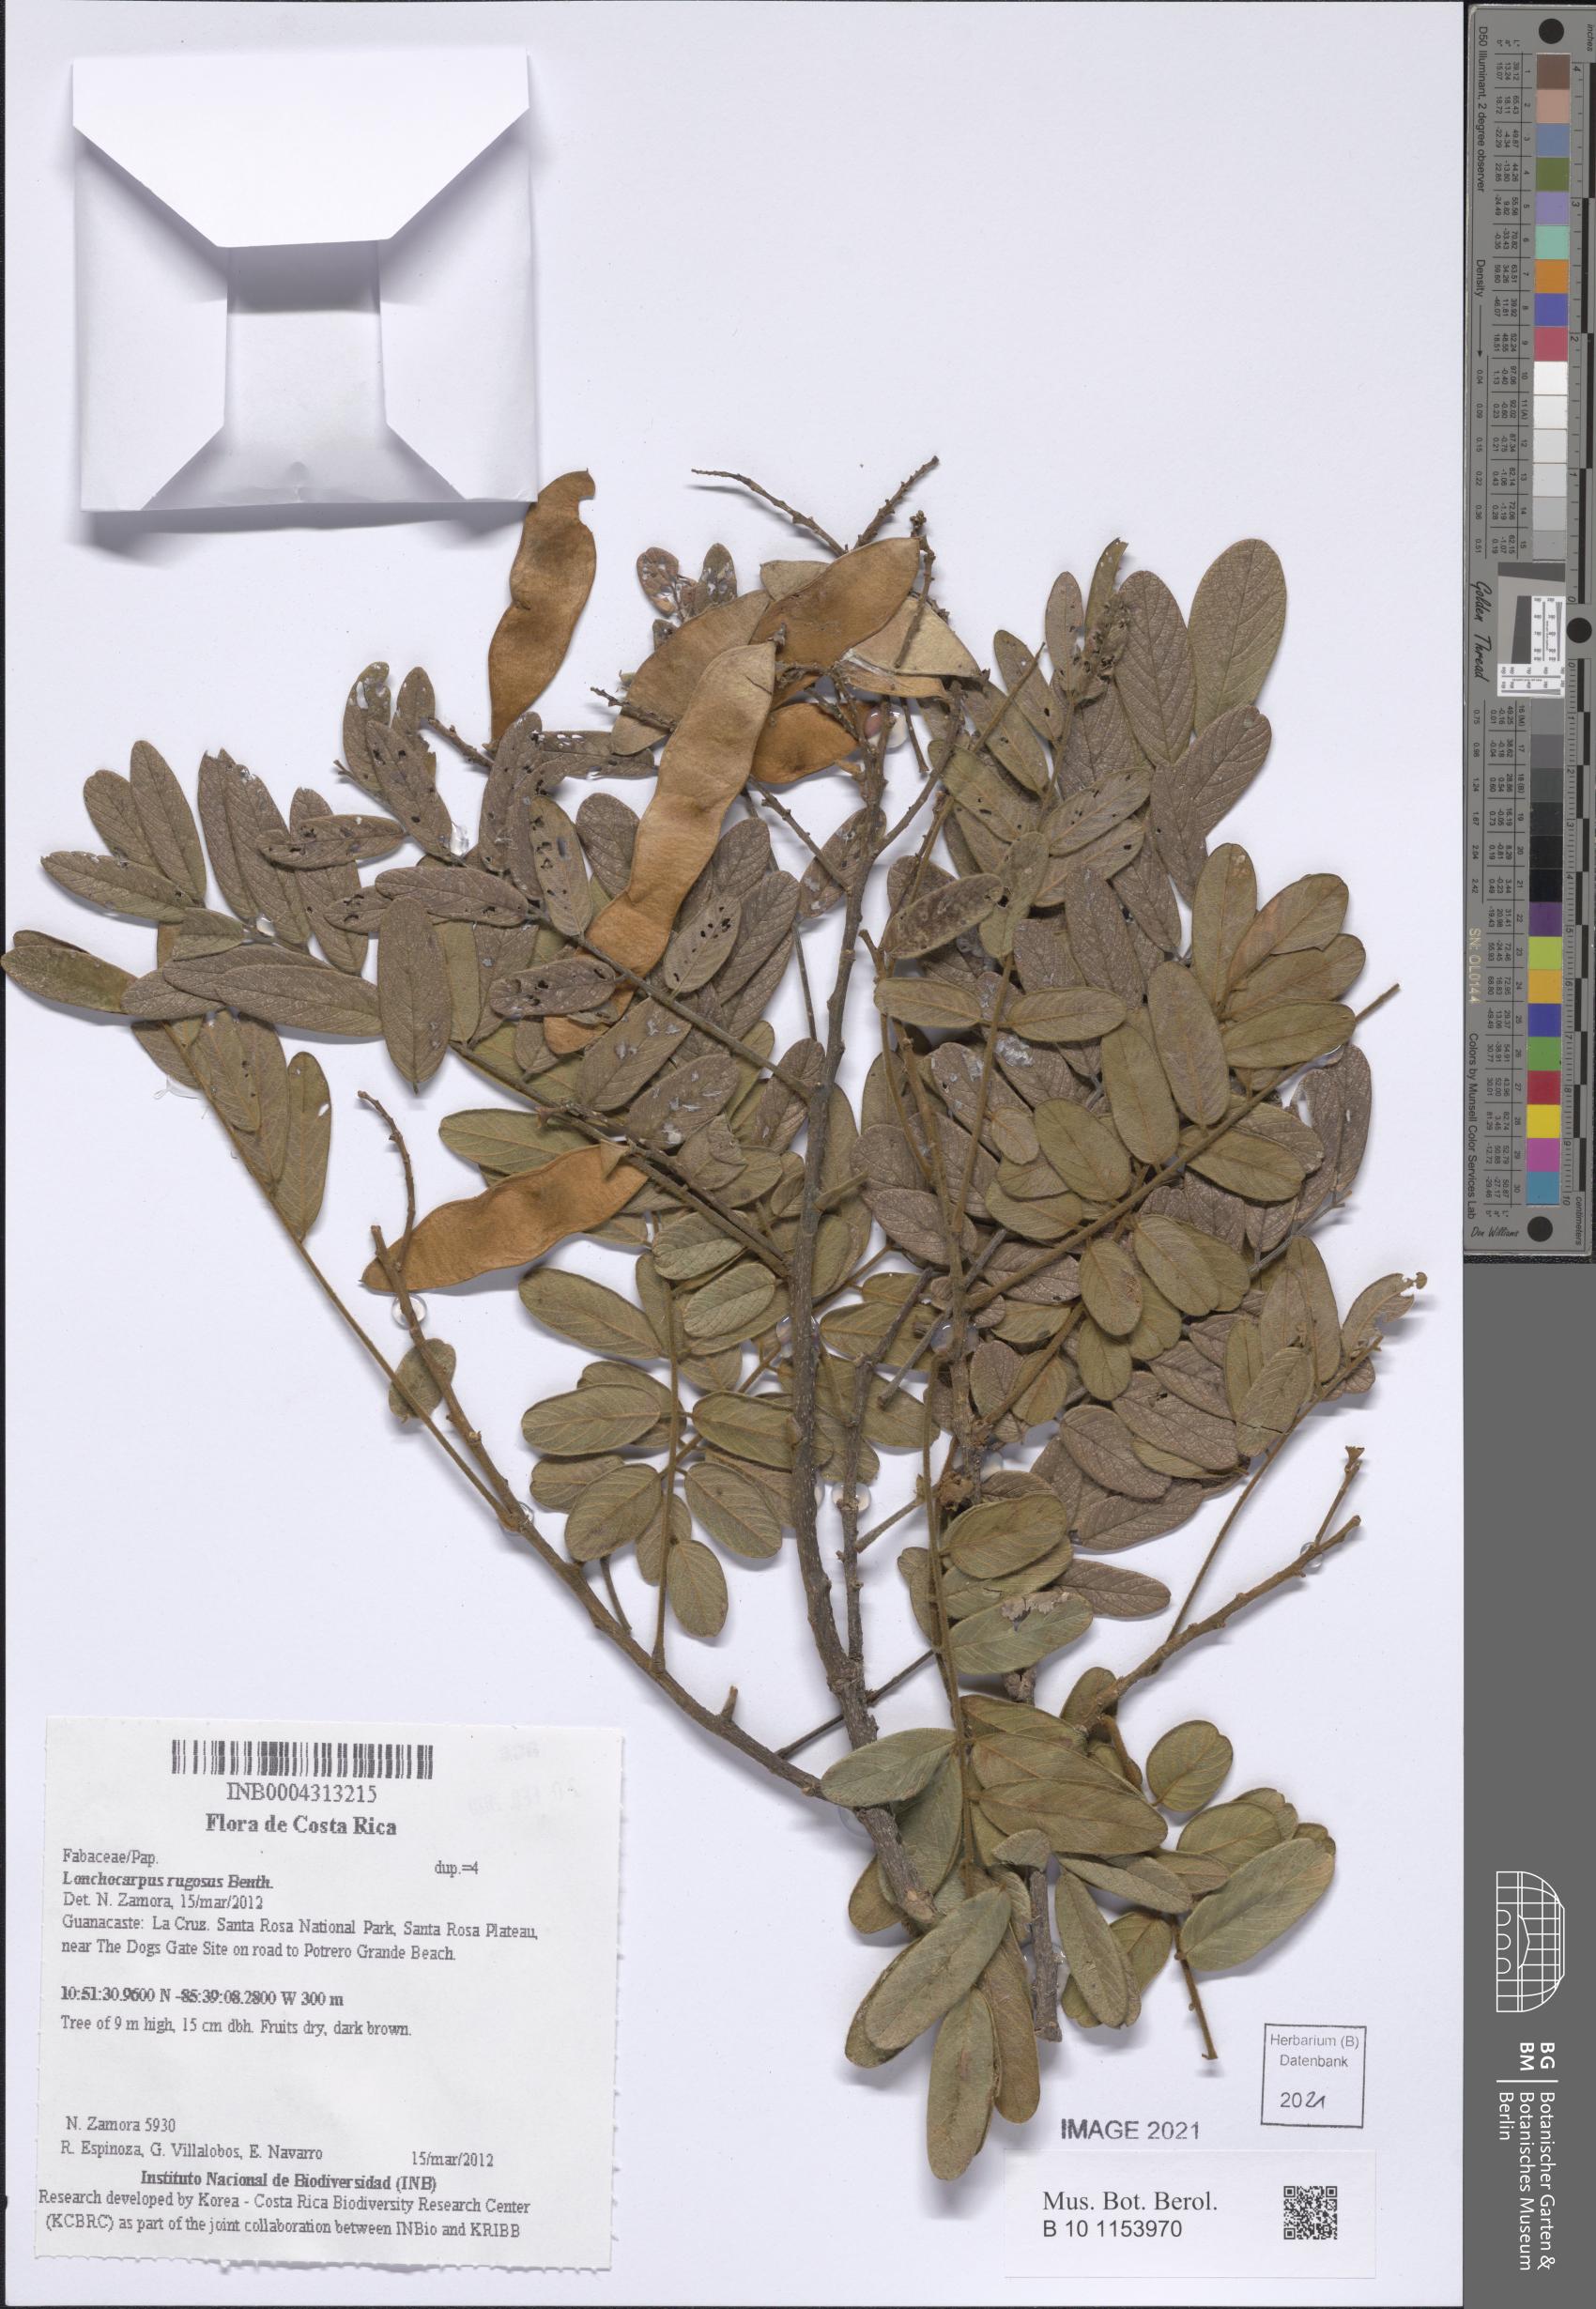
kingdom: Plantae
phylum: Tracheophyta
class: Magnoliopsida
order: Fabales
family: Fabaceae
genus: Lonchocarpus
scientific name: Lonchocarpus rugosus
